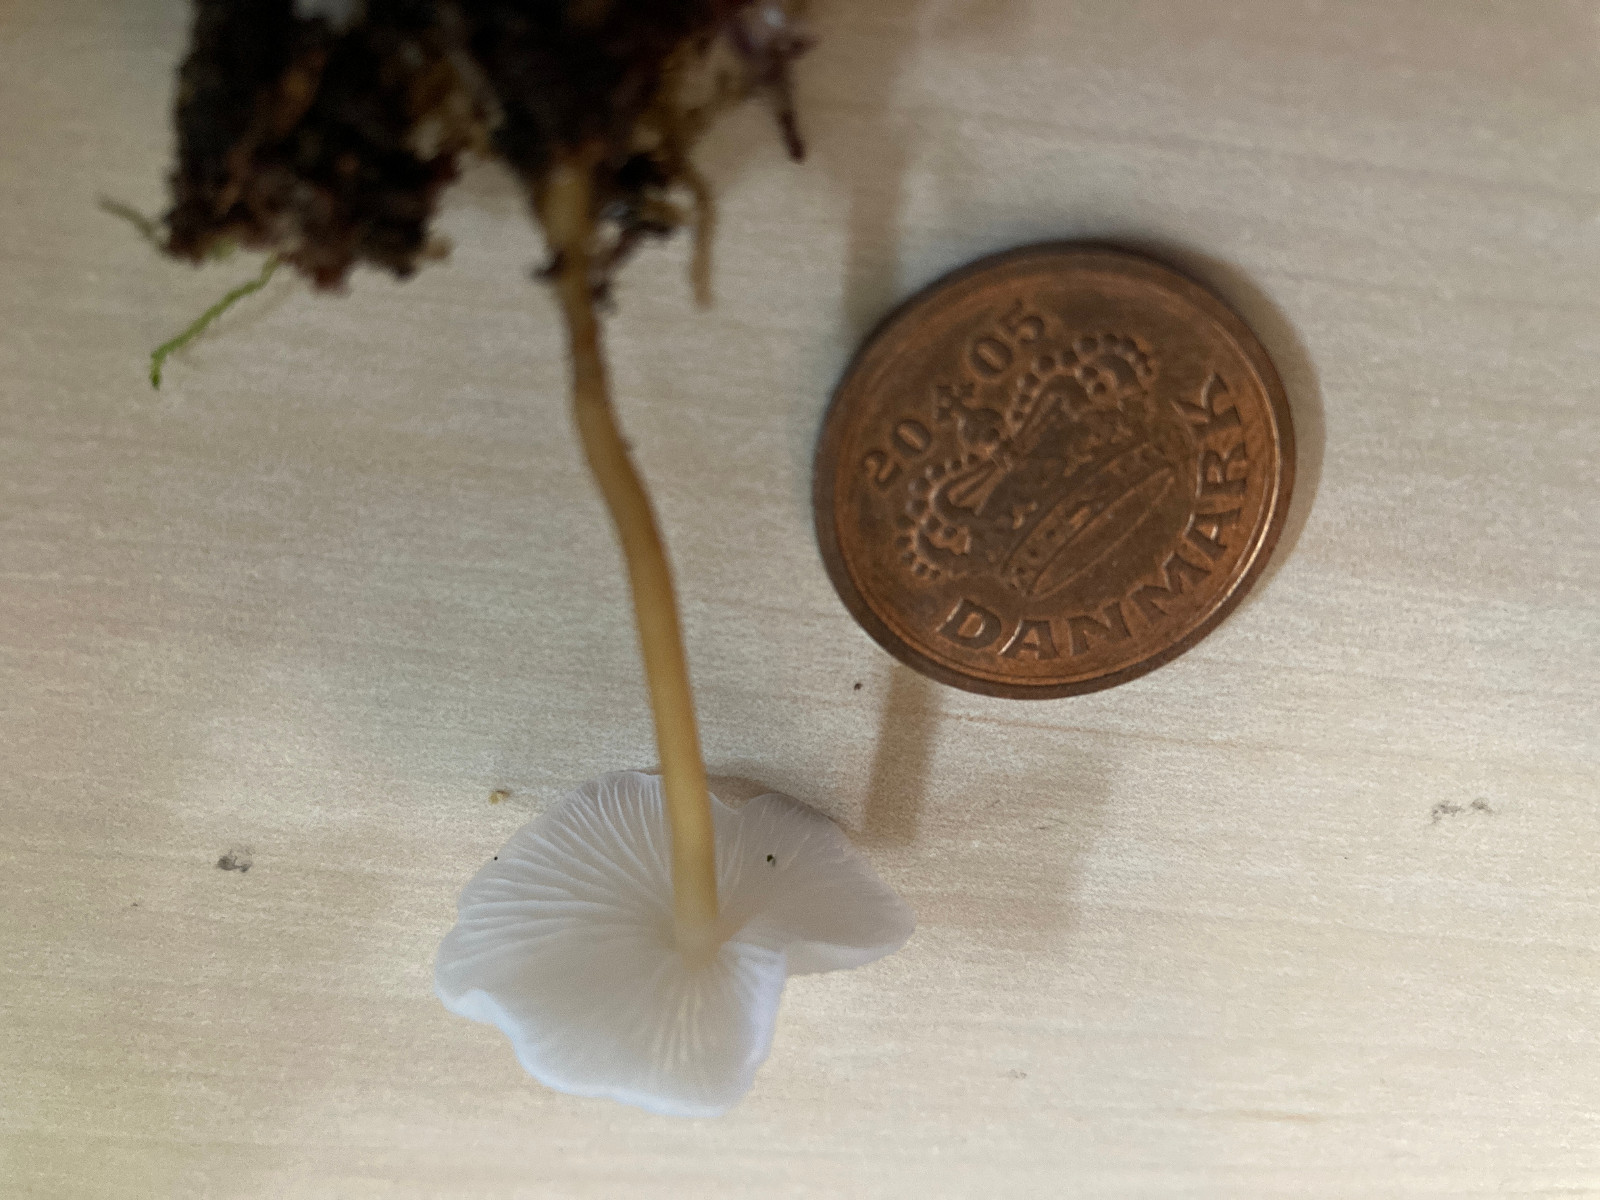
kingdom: Fungi
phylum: Basidiomycota
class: Agaricomycetes
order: Agaricales
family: Physalacriaceae
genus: Strobilurus
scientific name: Strobilurus esculentus
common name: gran-koglehat
